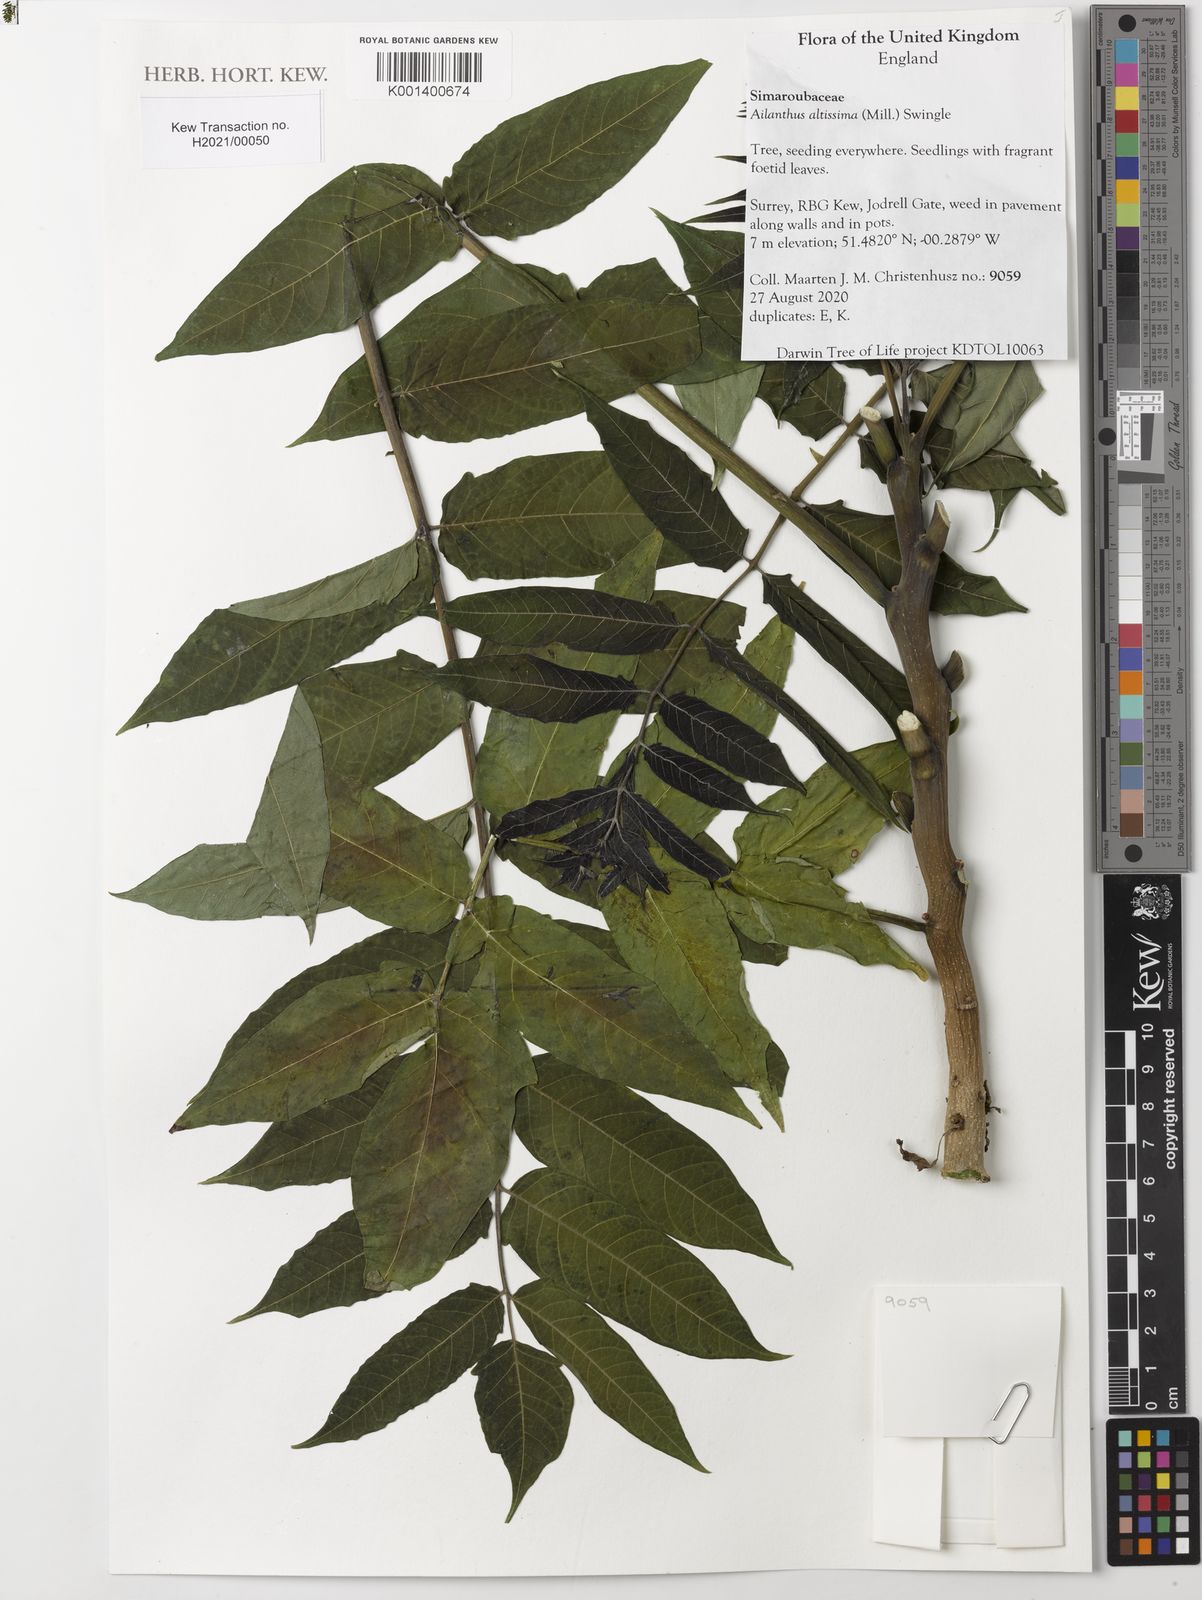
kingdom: Plantae
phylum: Tracheophyta
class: Magnoliopsida
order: Sapindales
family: Simaroubaceae
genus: Ailanthus
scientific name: Ailanthus altissima
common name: Tree-of-heaven
